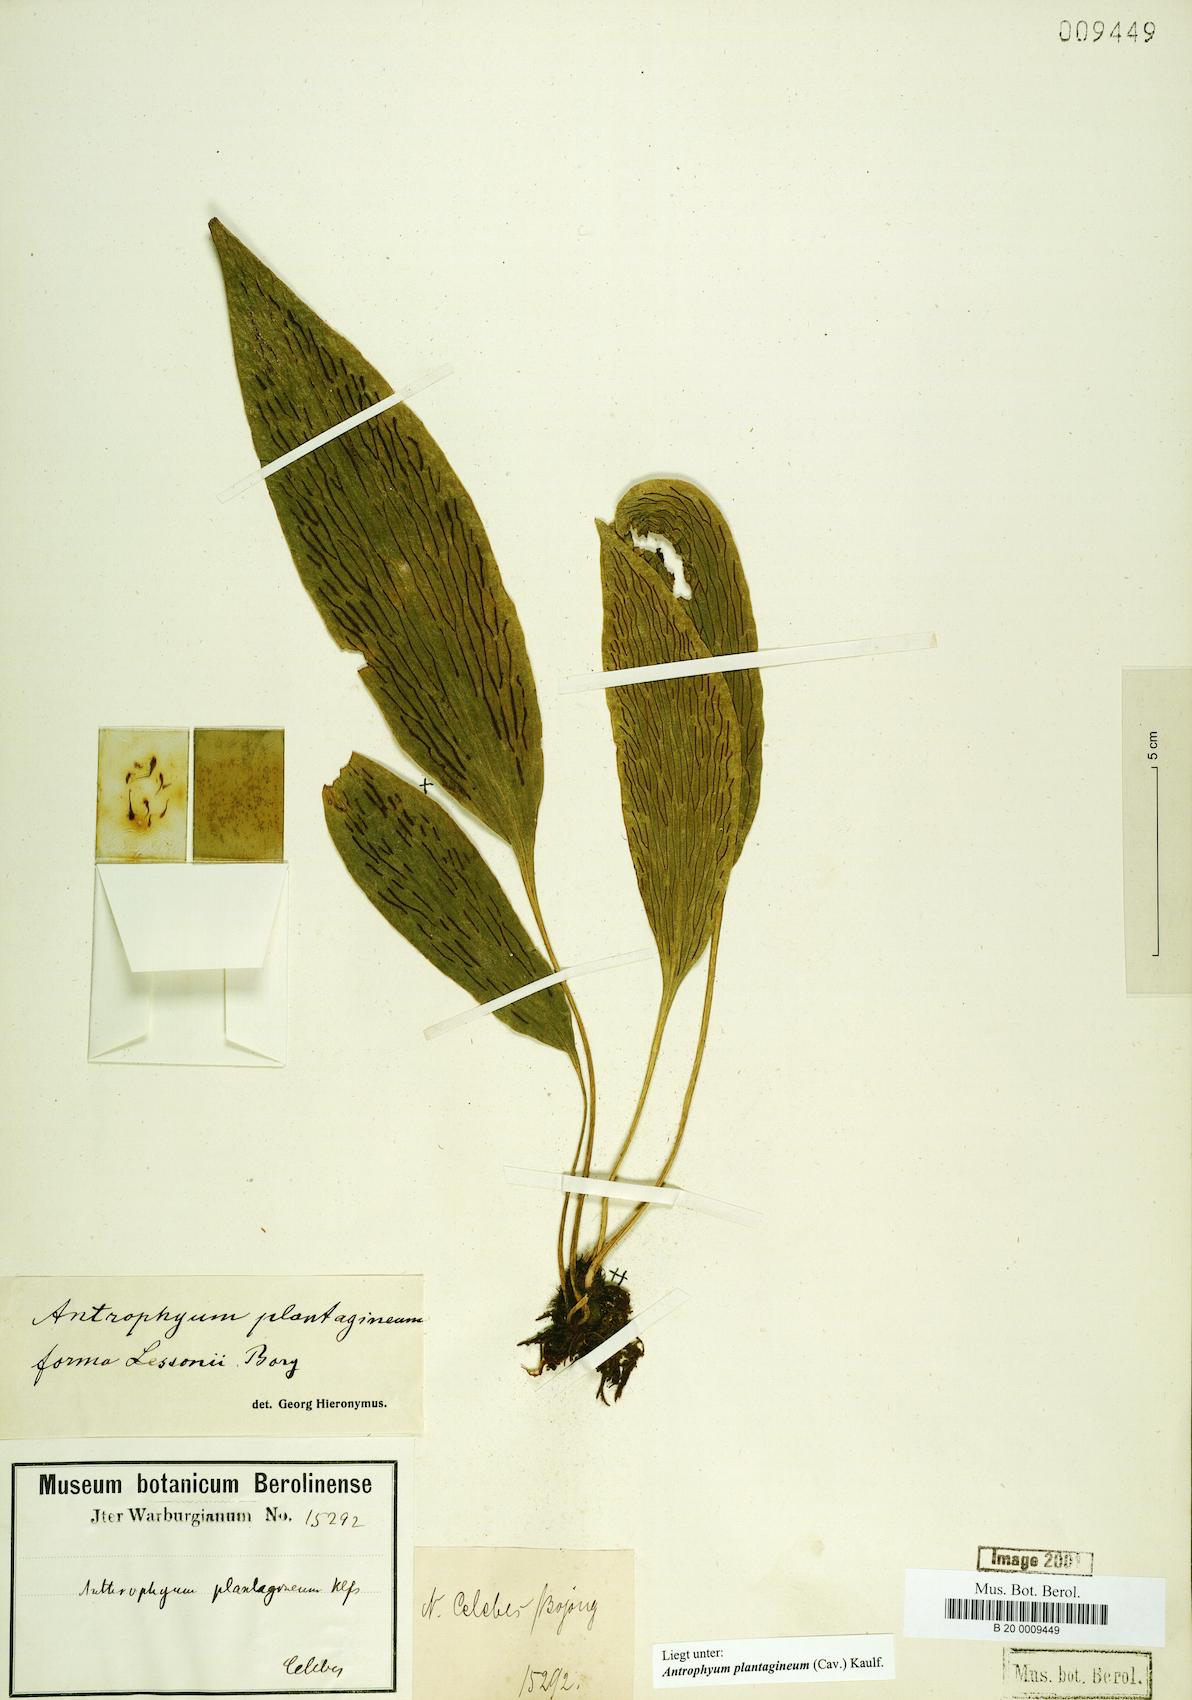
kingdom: Plantae
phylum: Tracheophyta
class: Polypodiopsida
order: Polypodiales
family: Pteridaceae
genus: Antrophyum
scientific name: Antrophyum plantagineum
